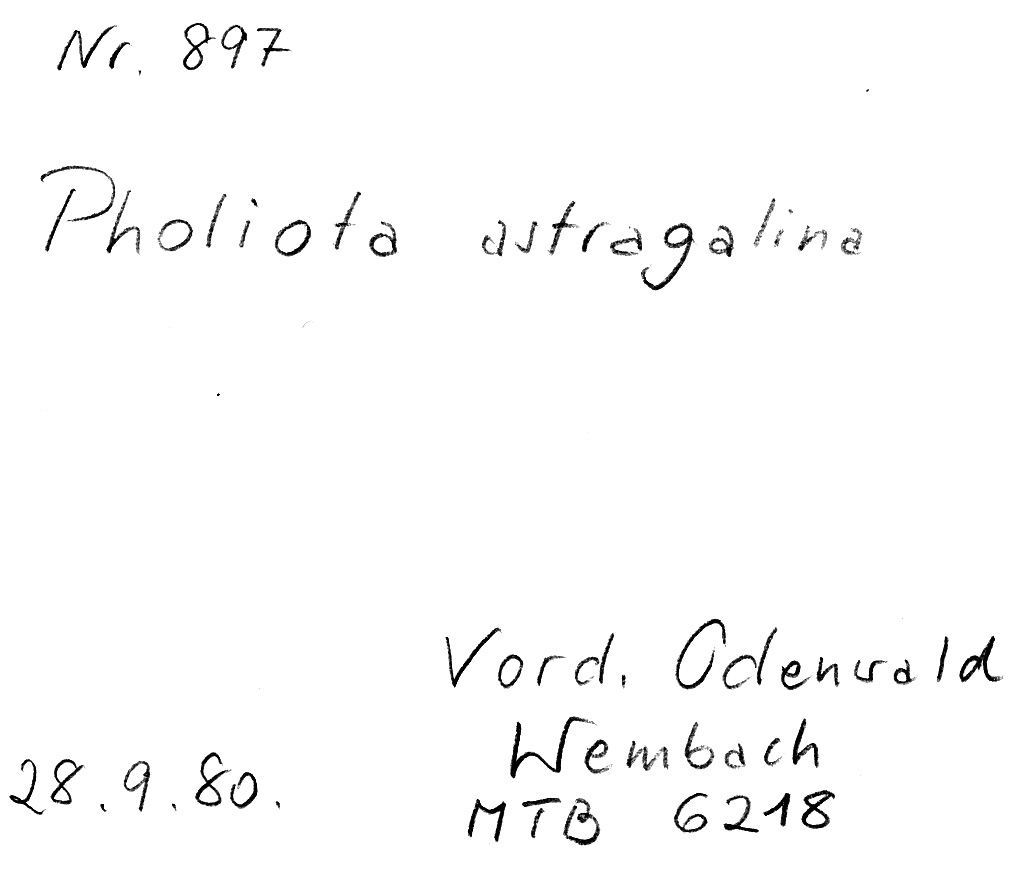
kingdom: Fungi
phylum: Basidiomycota
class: Agaricomycetes
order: Agaricales
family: Strophariaceae
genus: Pyrrhulomyces
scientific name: Pyrrhulomyces astragalinus
